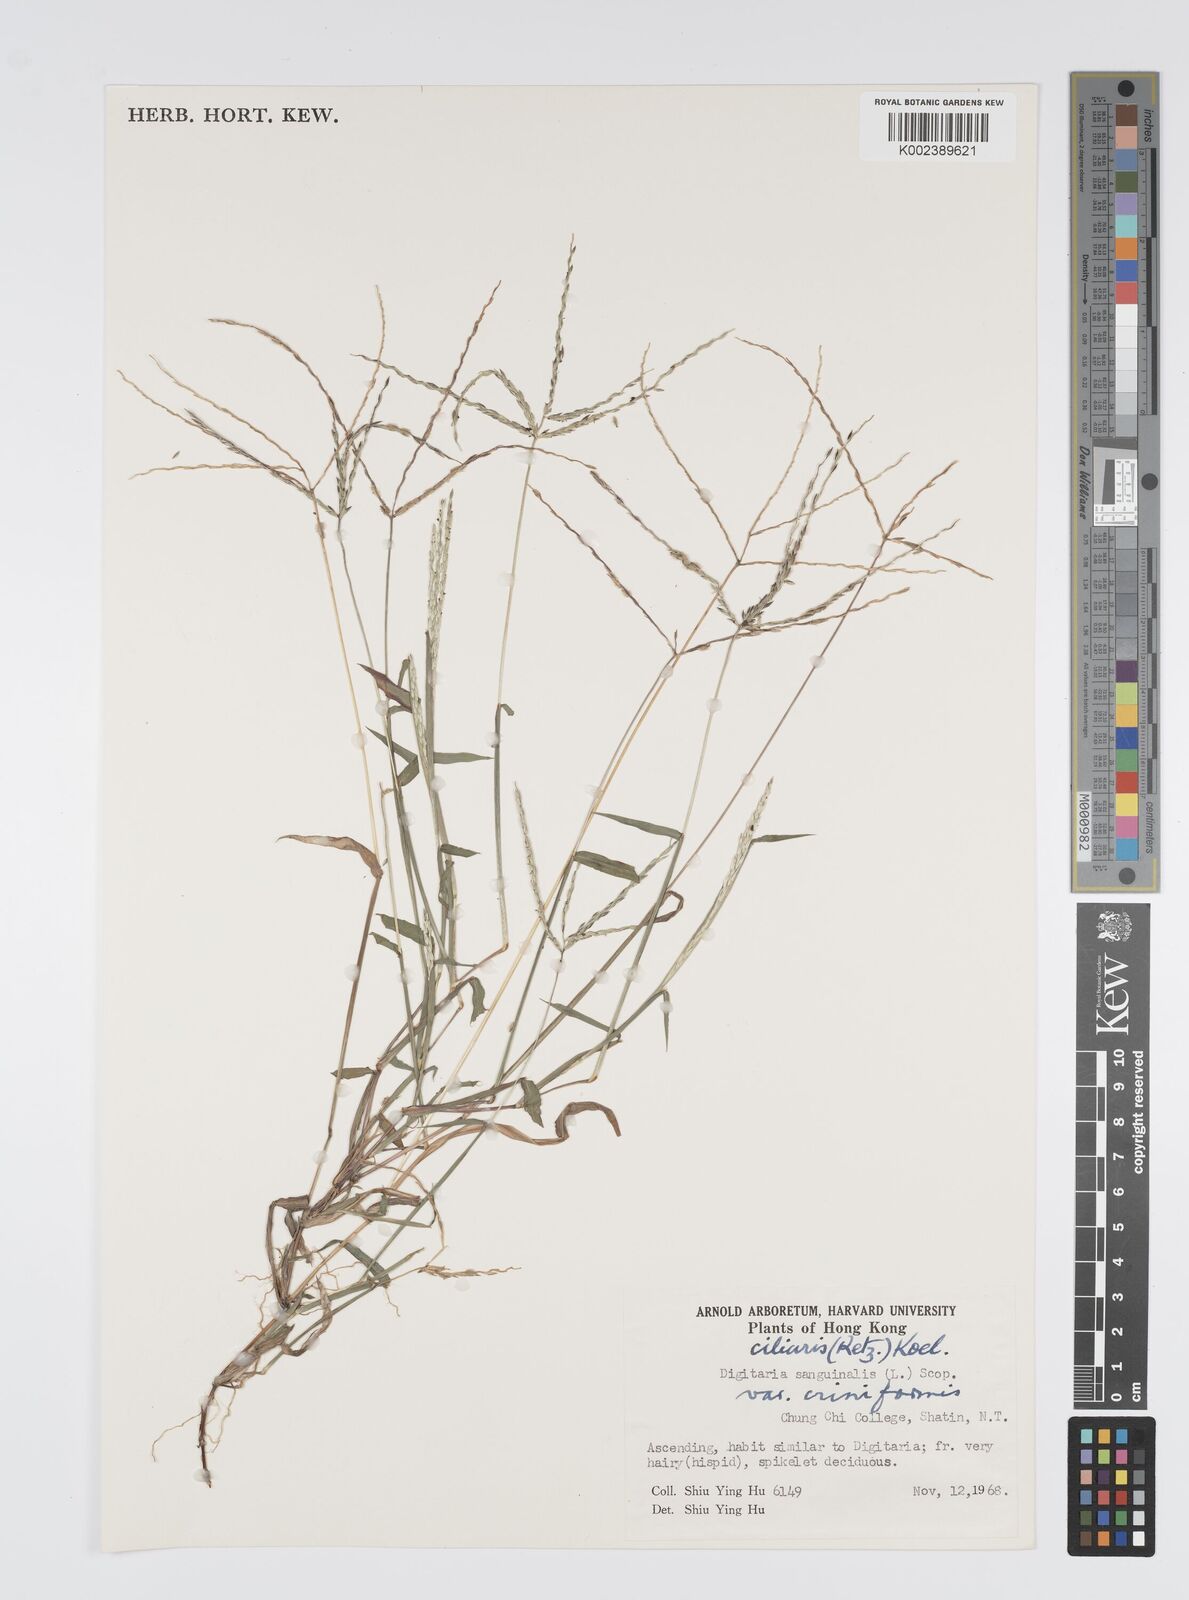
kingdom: Plantae
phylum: Tracheophyta
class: Liliopsida
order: Poales
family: Poaceae
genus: Digitaria
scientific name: Digitaria ciliaris
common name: Tropical finger-grass
